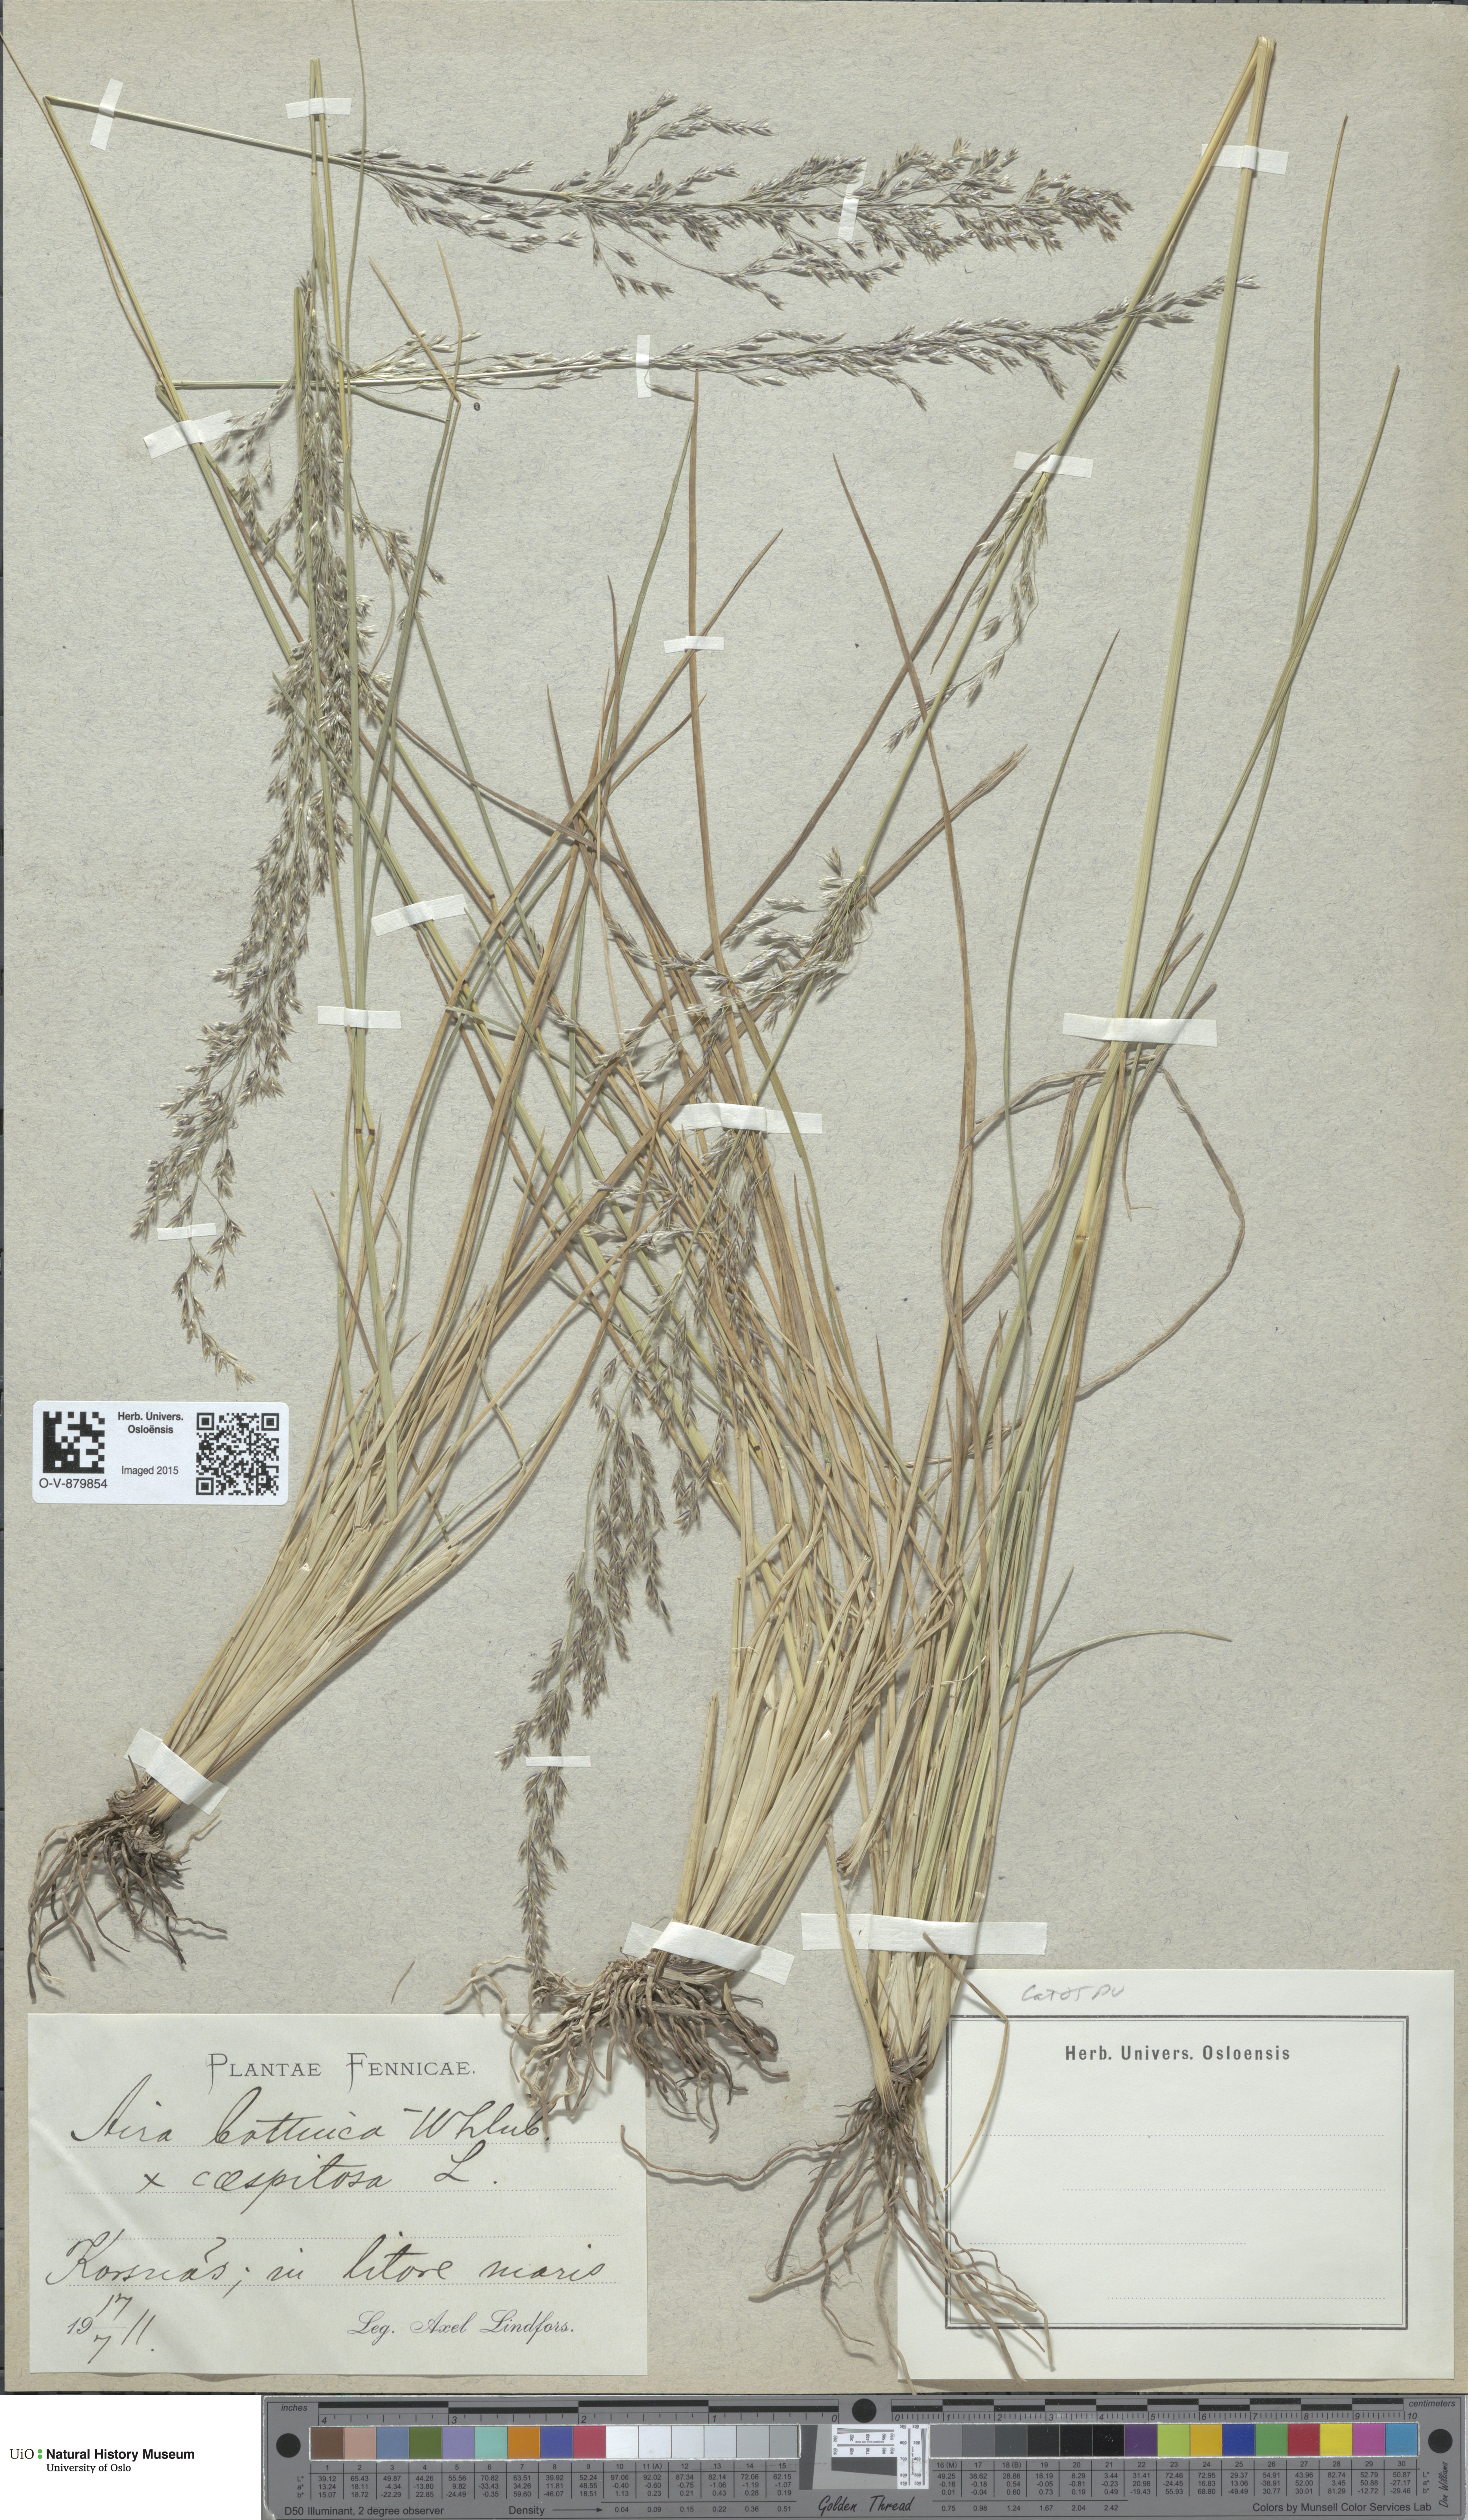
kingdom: Plantae
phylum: Tracheophyta
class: Liliopsida
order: Poales
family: Poaceae
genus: Deschampsia
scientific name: Deschampsia
